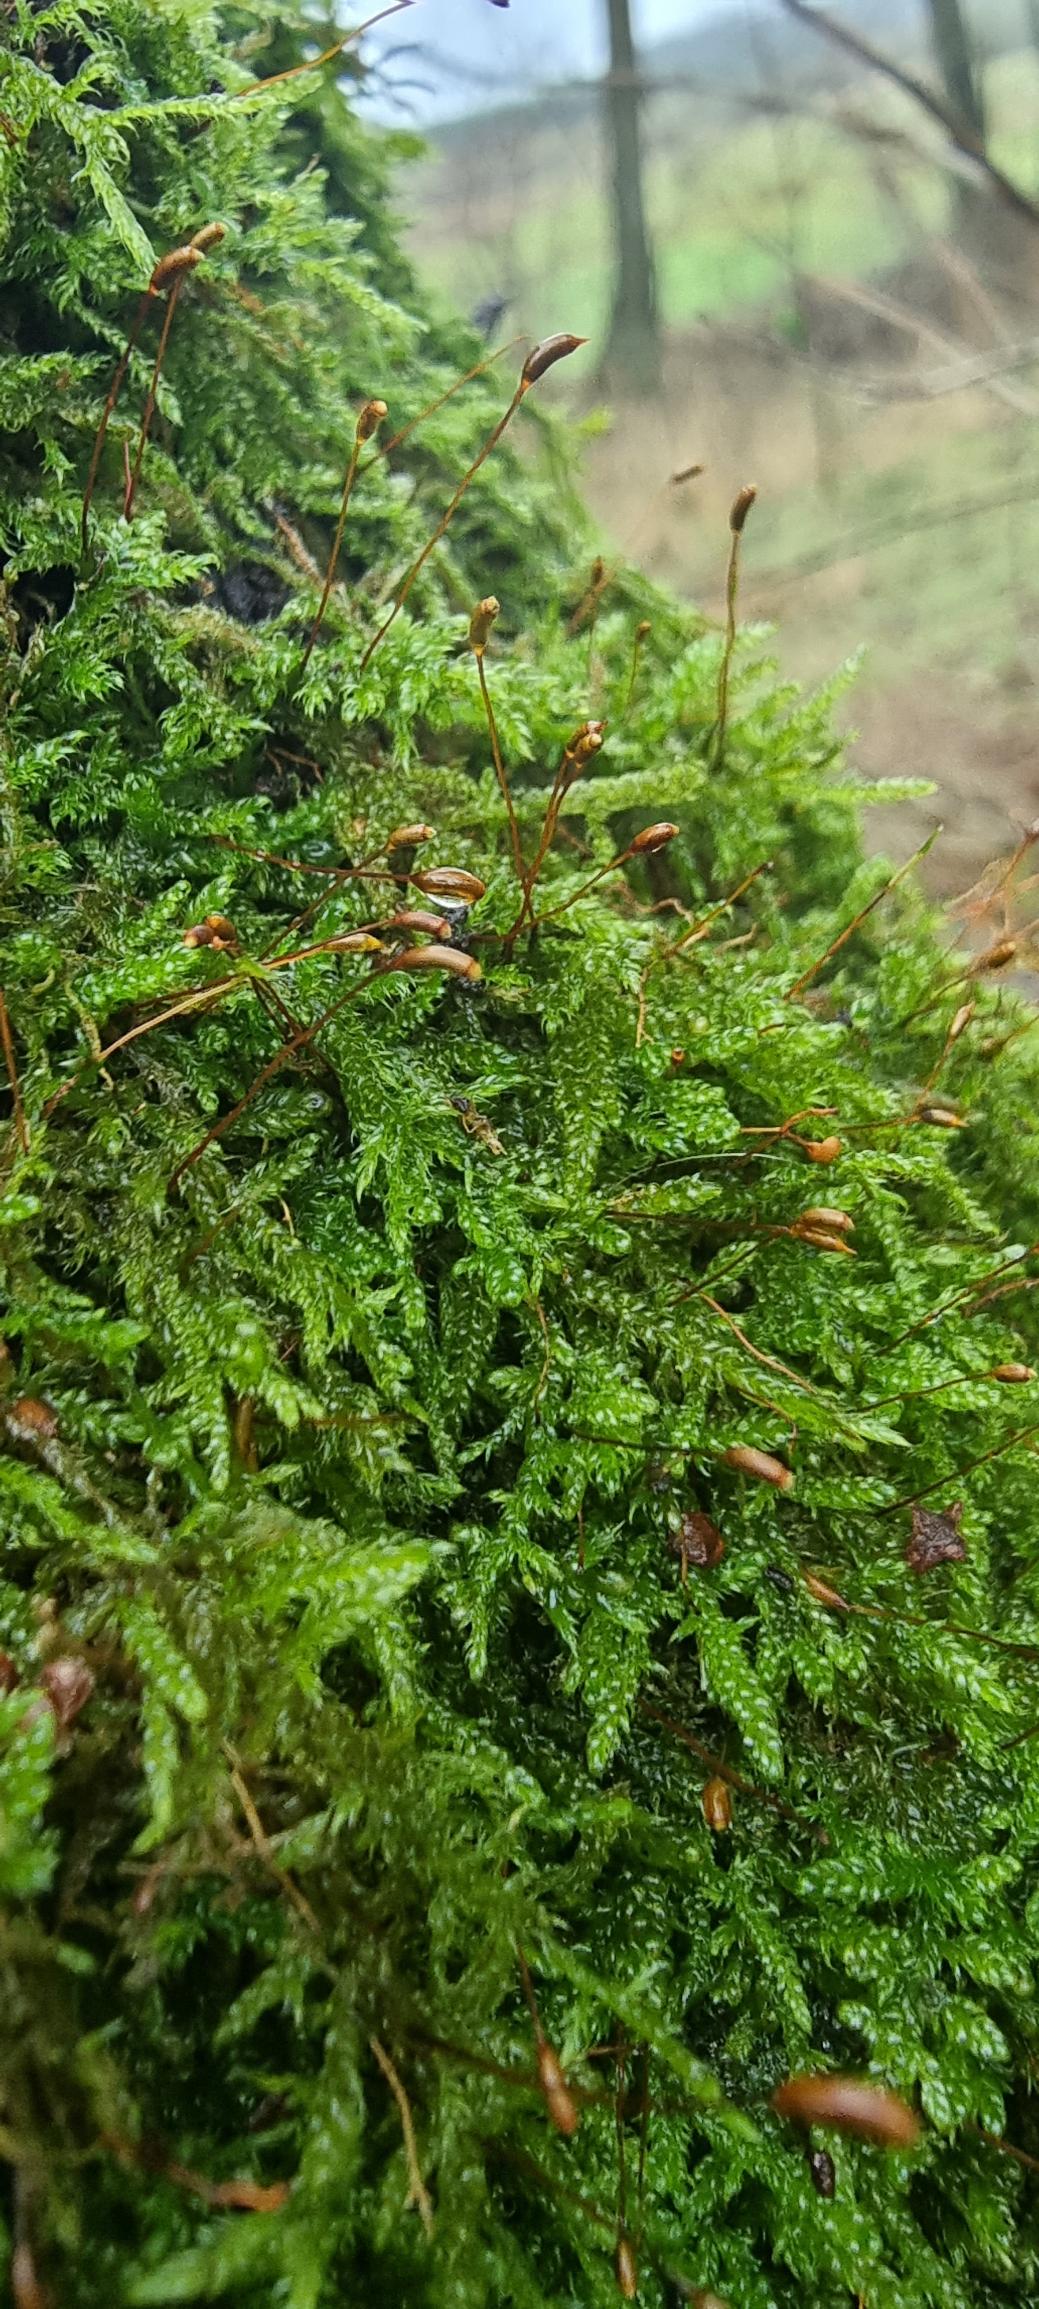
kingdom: Plantae
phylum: Bryophyta
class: Bryopsida
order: Hypnales
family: Hypnaceae
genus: Hypnum
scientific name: Hypnum cupressiforme
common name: Almindelig cypresmos
